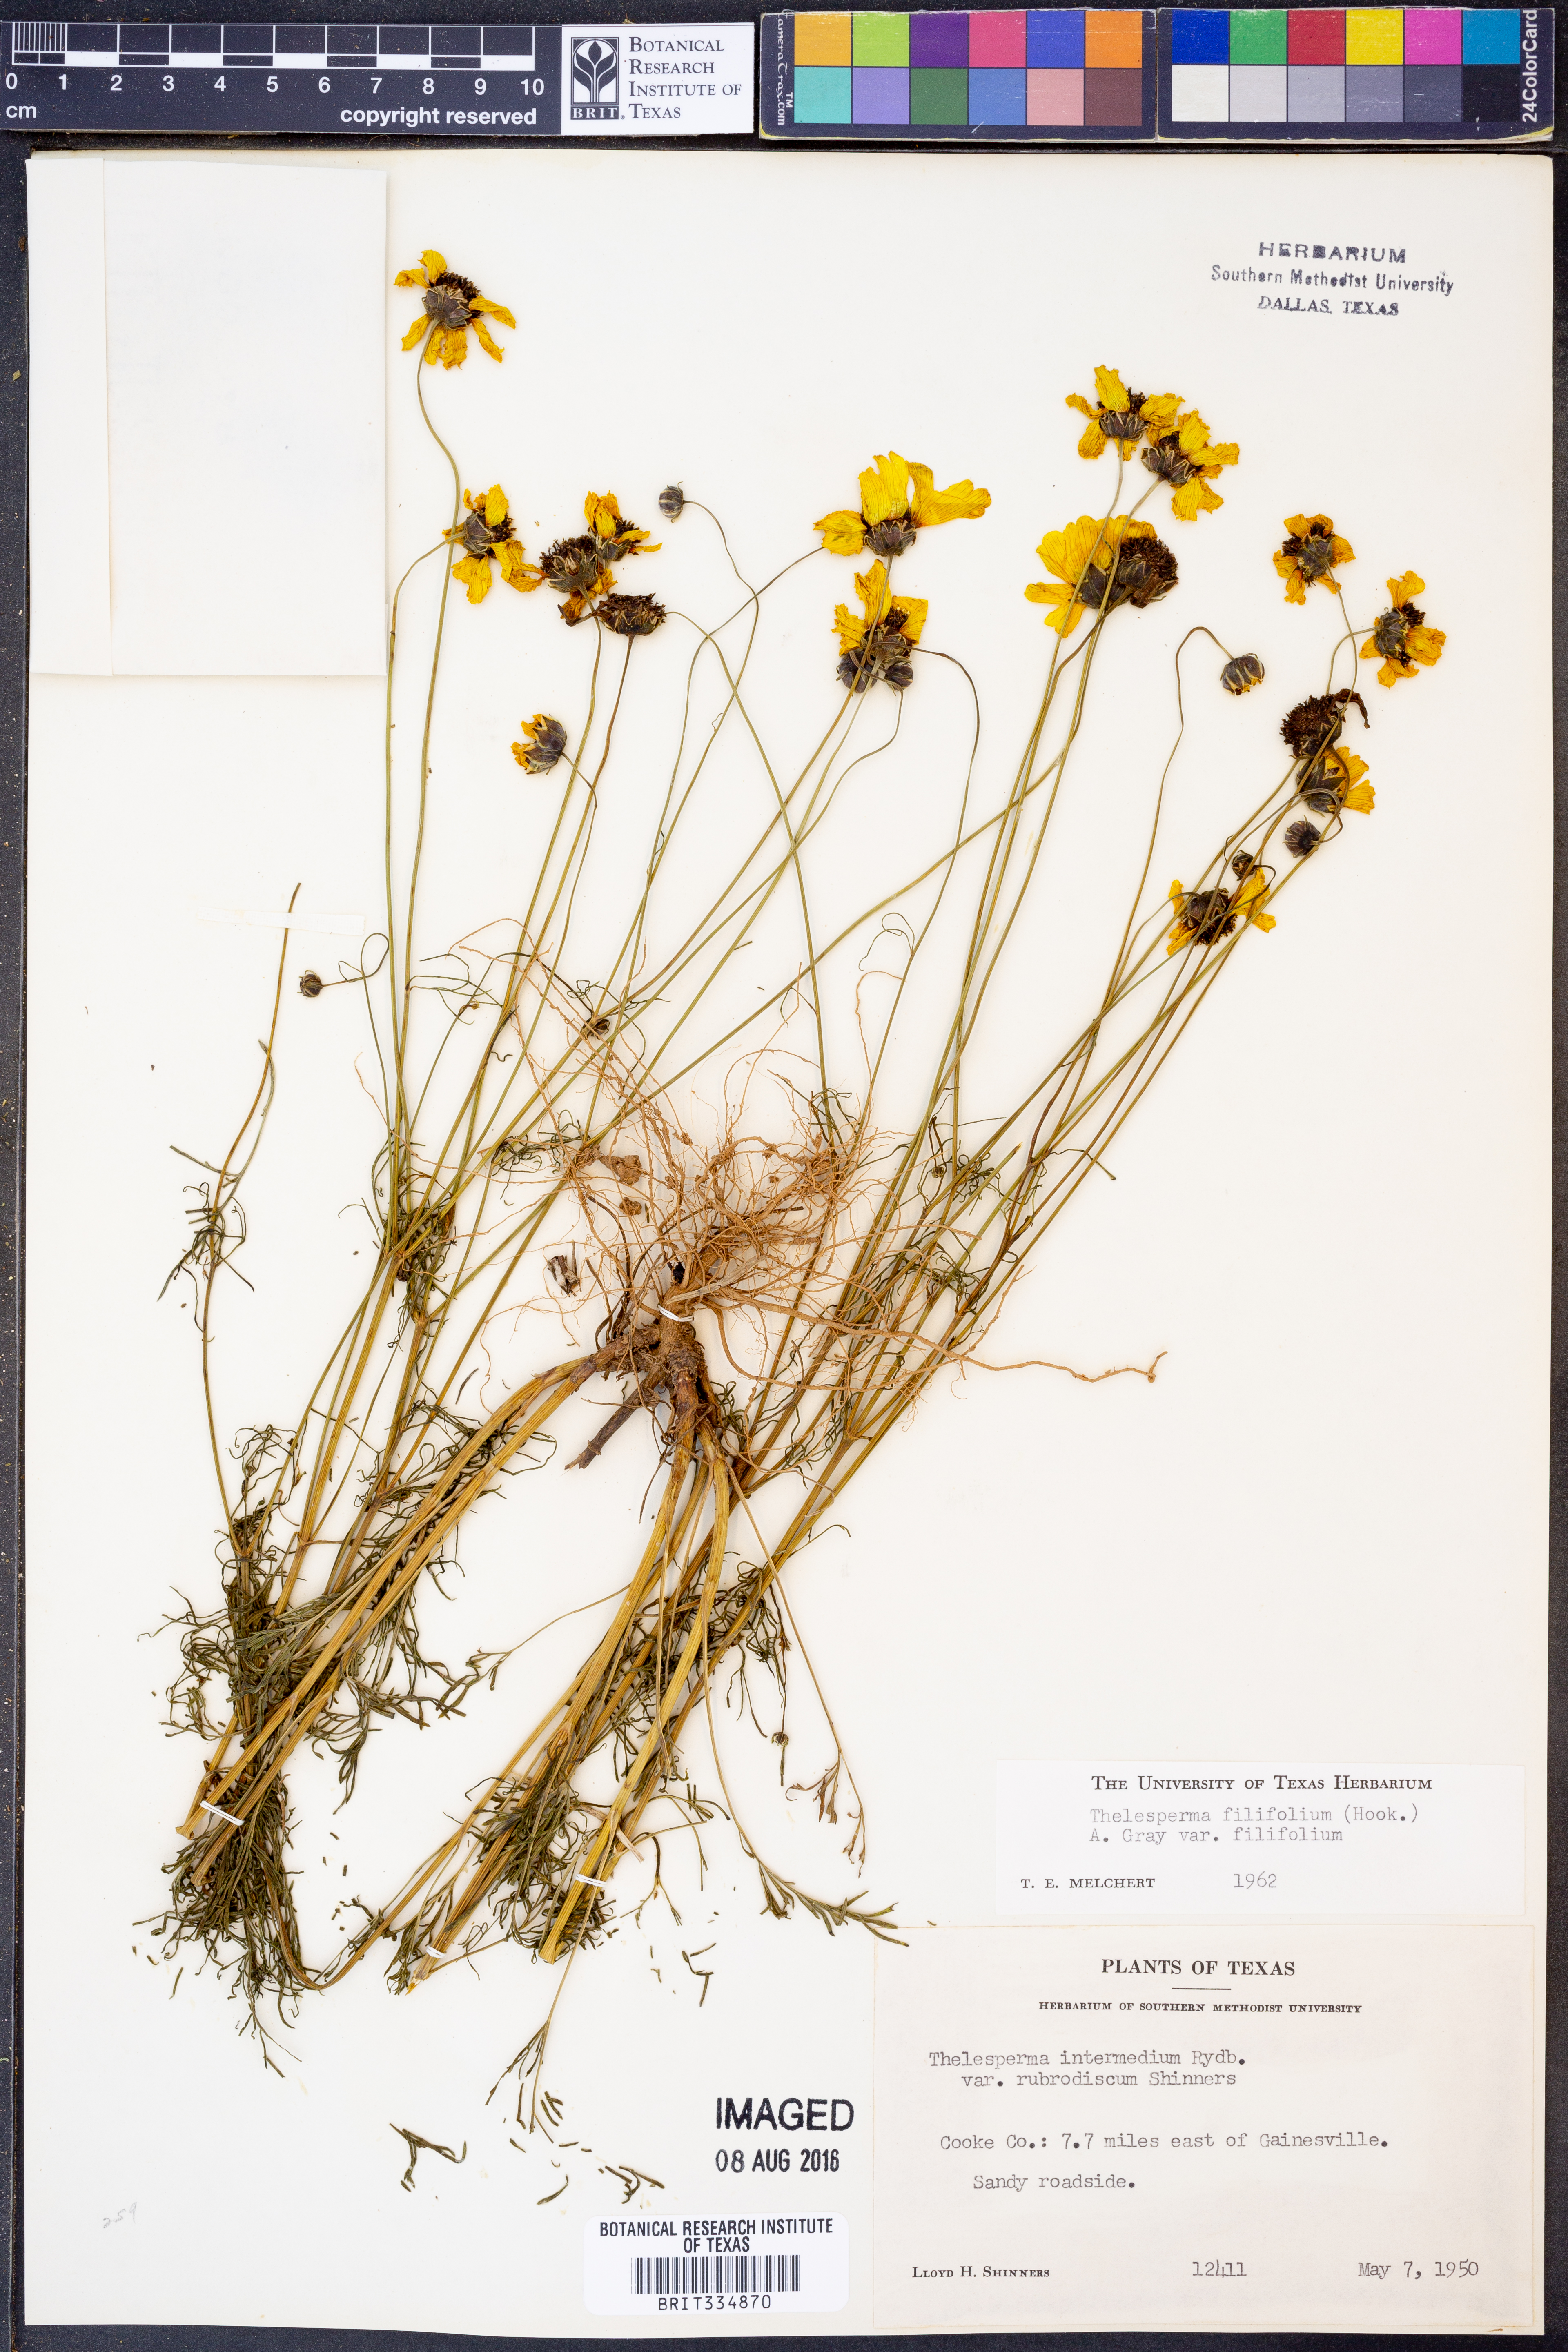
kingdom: Plantae
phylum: Tracheophyta
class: Magnoliopsida
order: Asterales
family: Asteraceae
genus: Thelesperma
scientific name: Thelesperma filifolium
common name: Stiff greenthread
